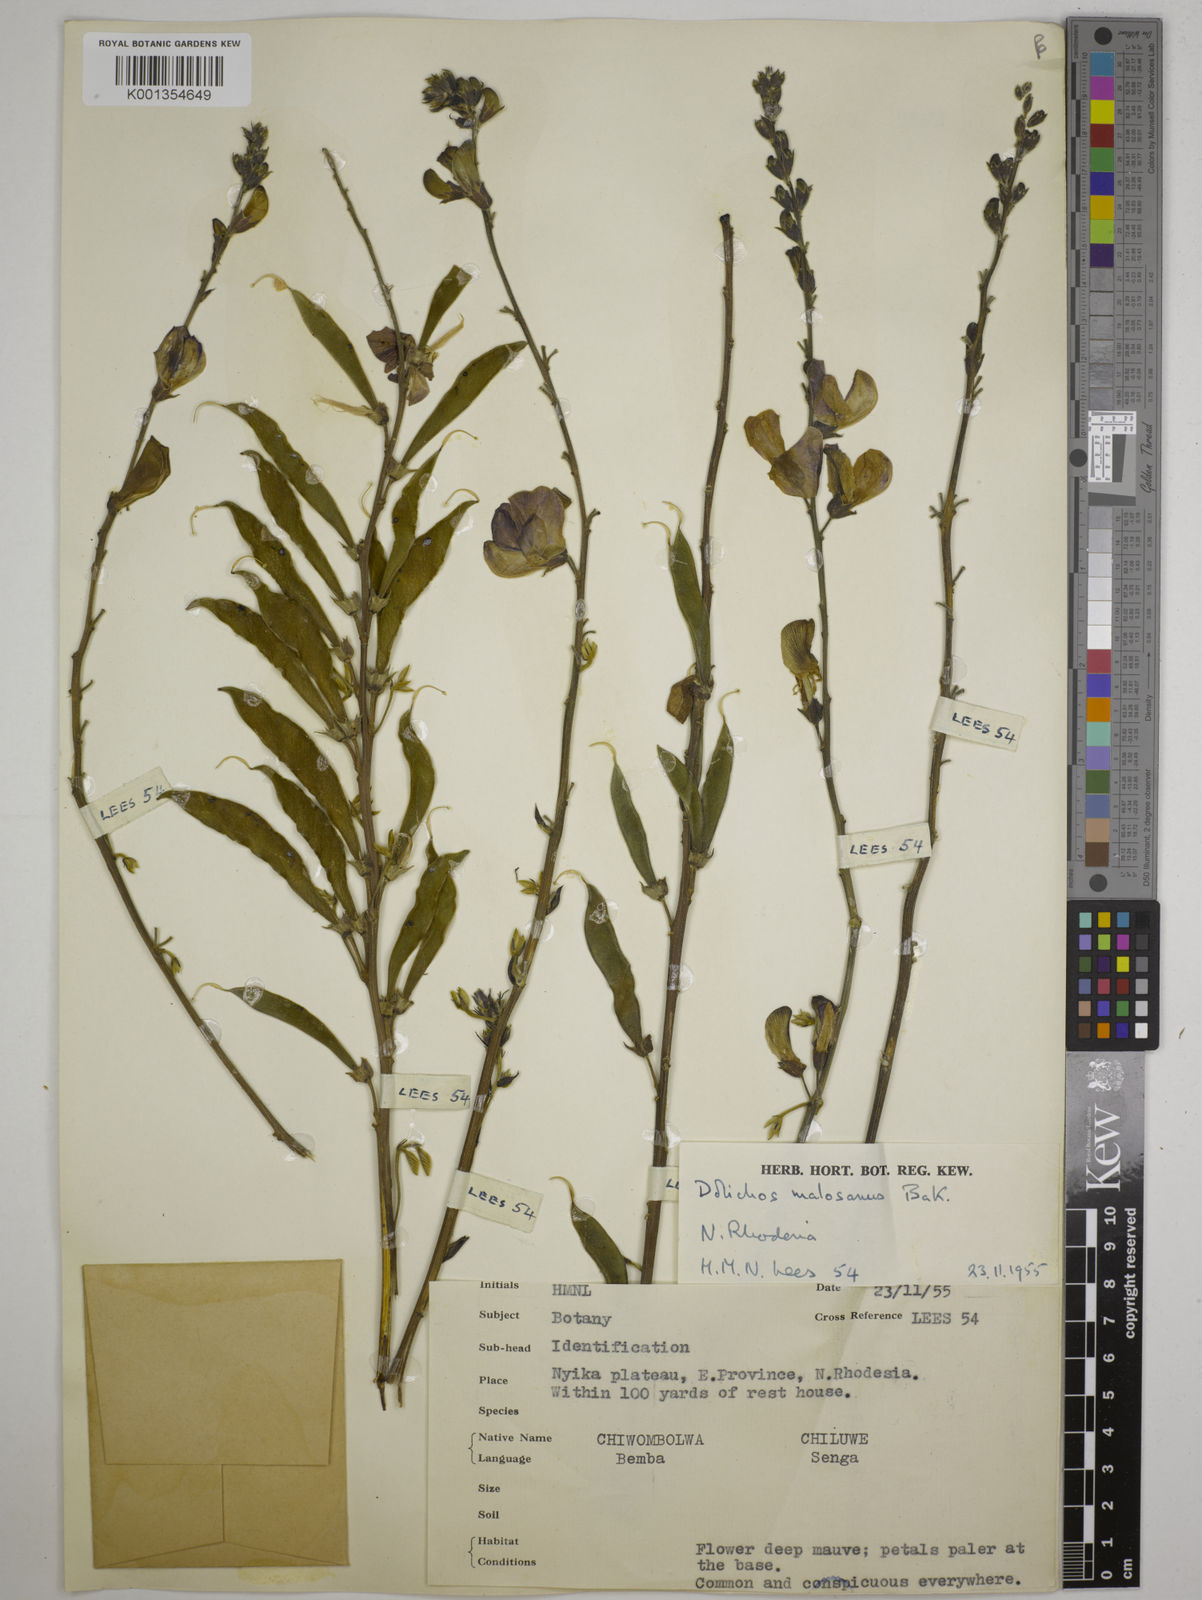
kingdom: Plantae
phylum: Tracheophyta
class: Magnoliopsida
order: Fabales
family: Fabaceae
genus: Dolichos
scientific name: Dolichos kilimandscharicus
